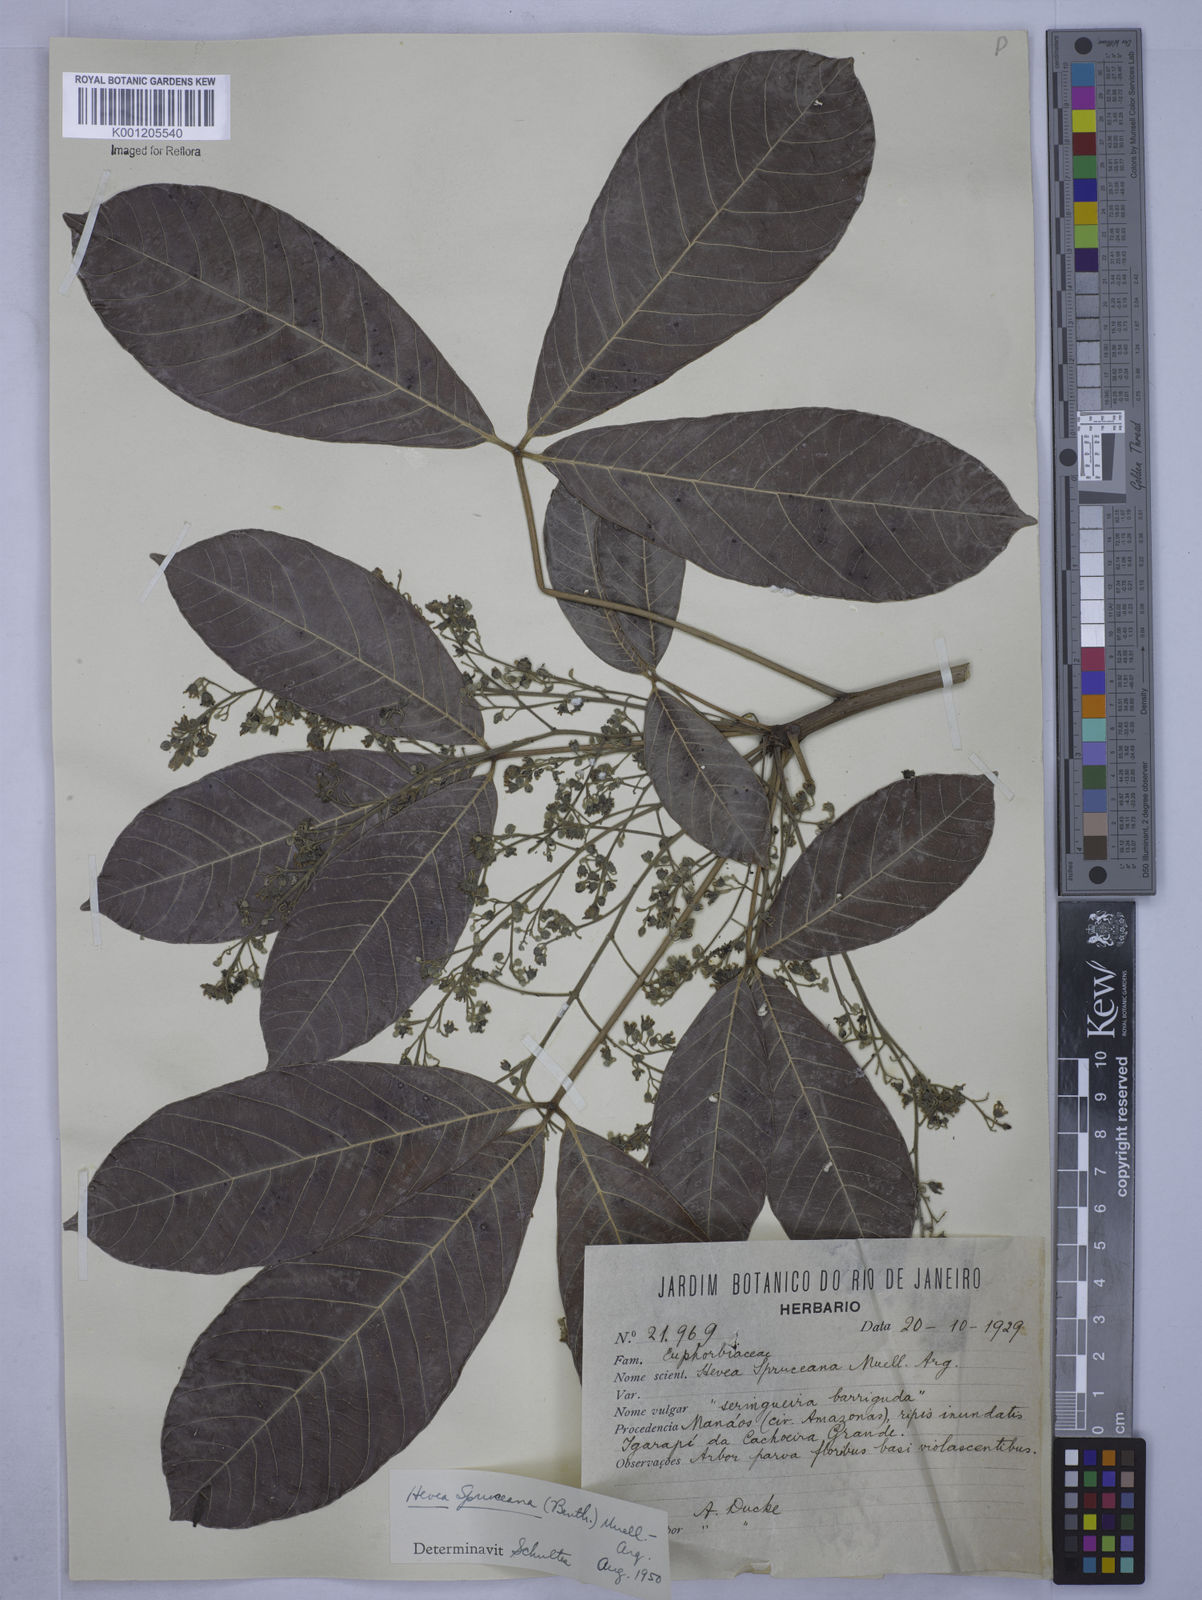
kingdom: Plantae
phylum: Tracheophyta
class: Magnoliopsida
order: Malpighiales
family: Euphorbiaceae
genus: Hevea
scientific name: Hevea
